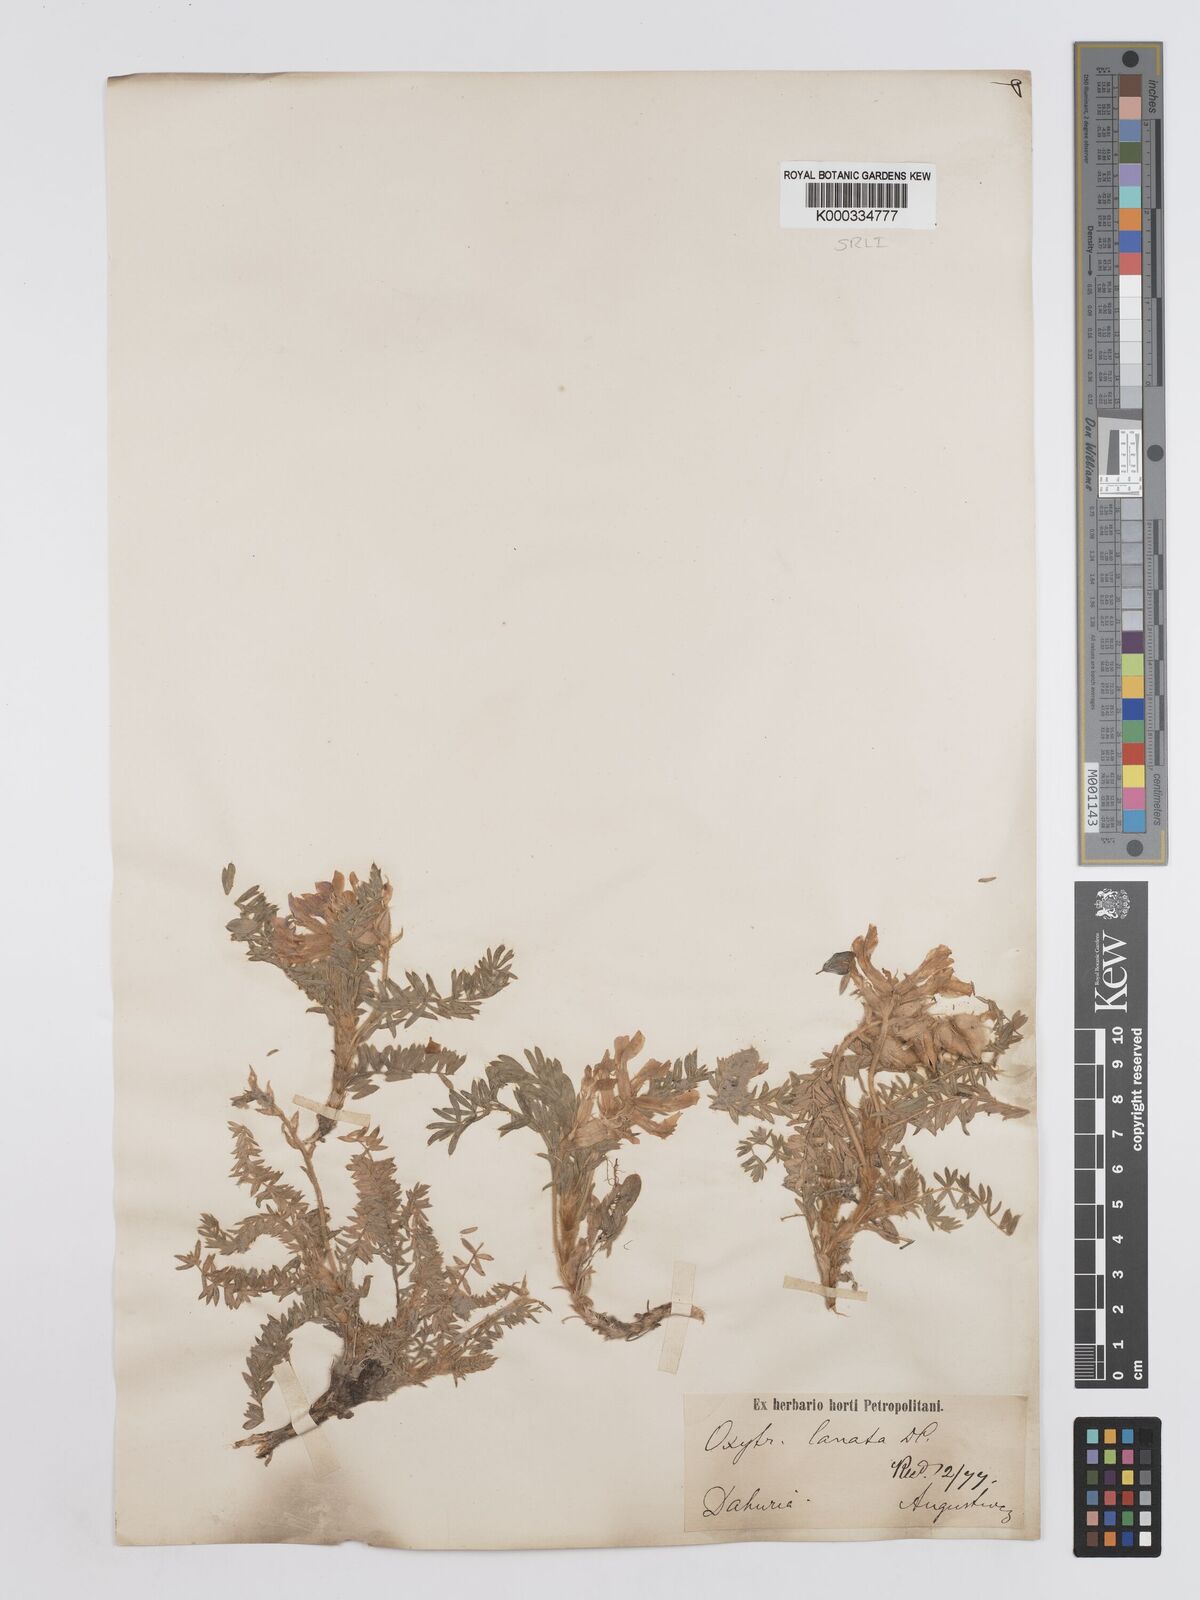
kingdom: Plantae
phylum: Tracheophyta
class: Magnoliopsida
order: Fabales
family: Fabaceae
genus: Oxytropis
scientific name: Oxytropis lanata
